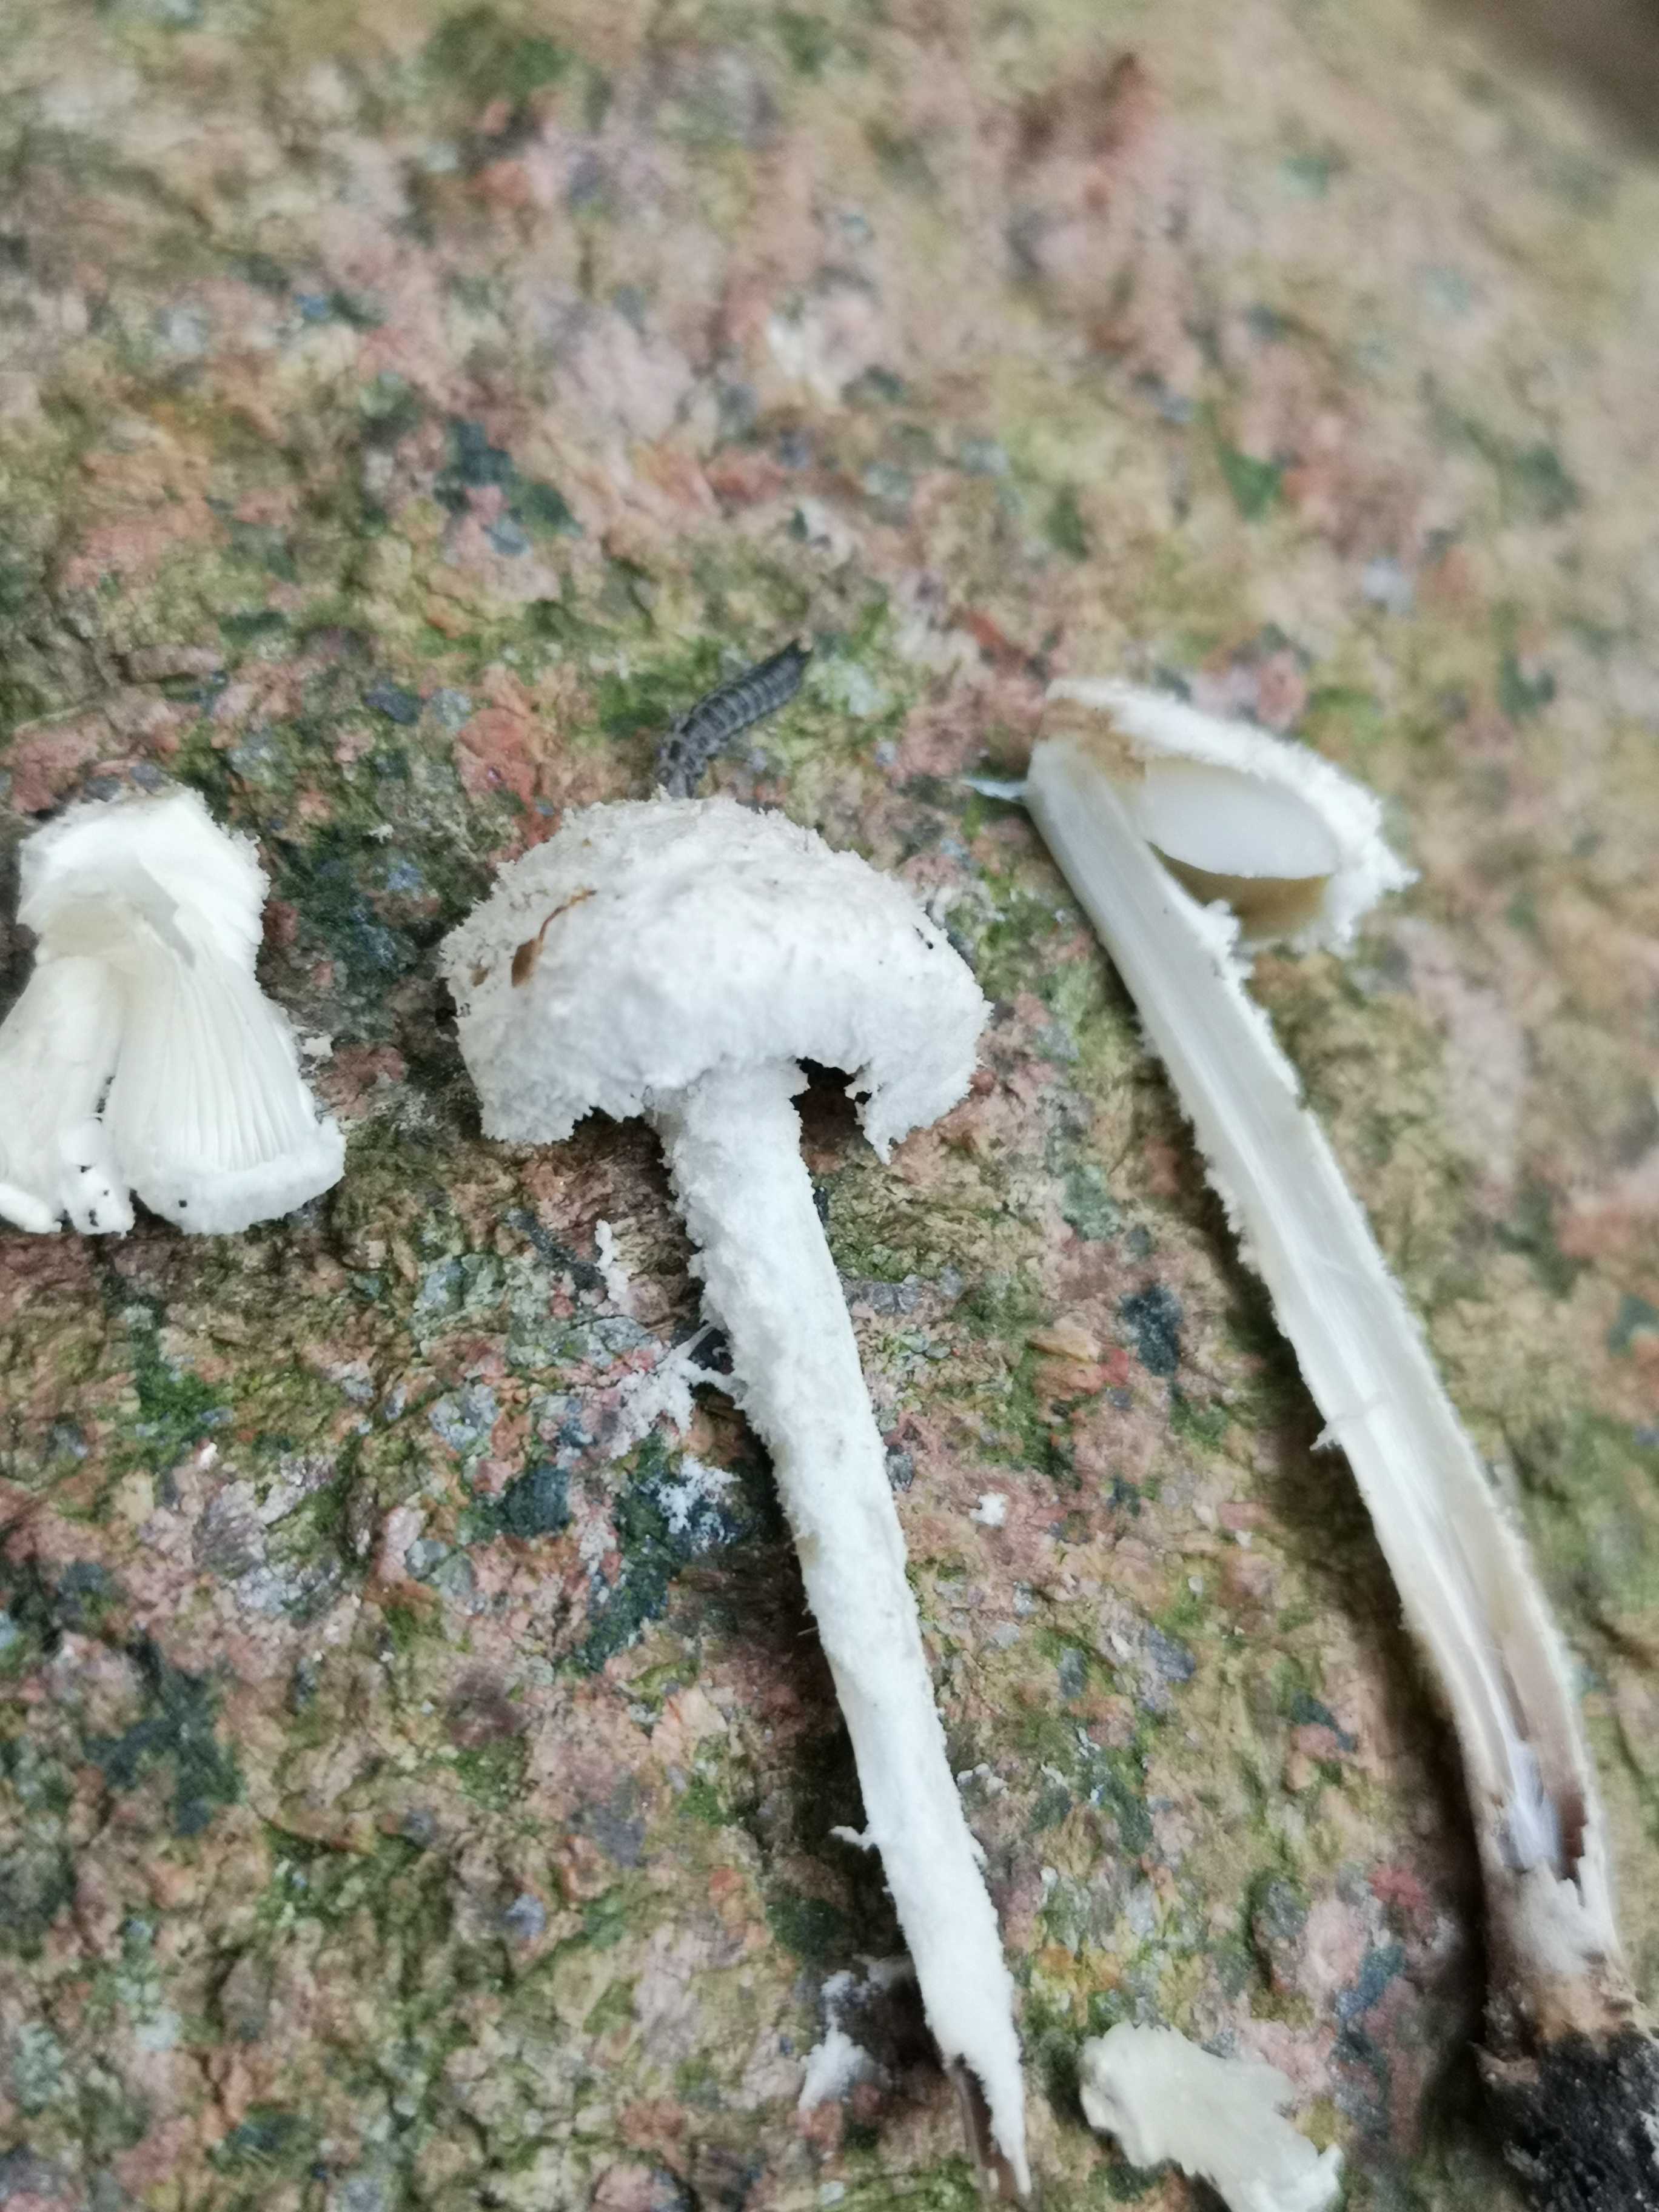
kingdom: Fungi
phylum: Basidiomycota
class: Agaricomycetes
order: Agaricales
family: Agaricaceae
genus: Cystolepiota
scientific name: Cystolepiota adulterina
